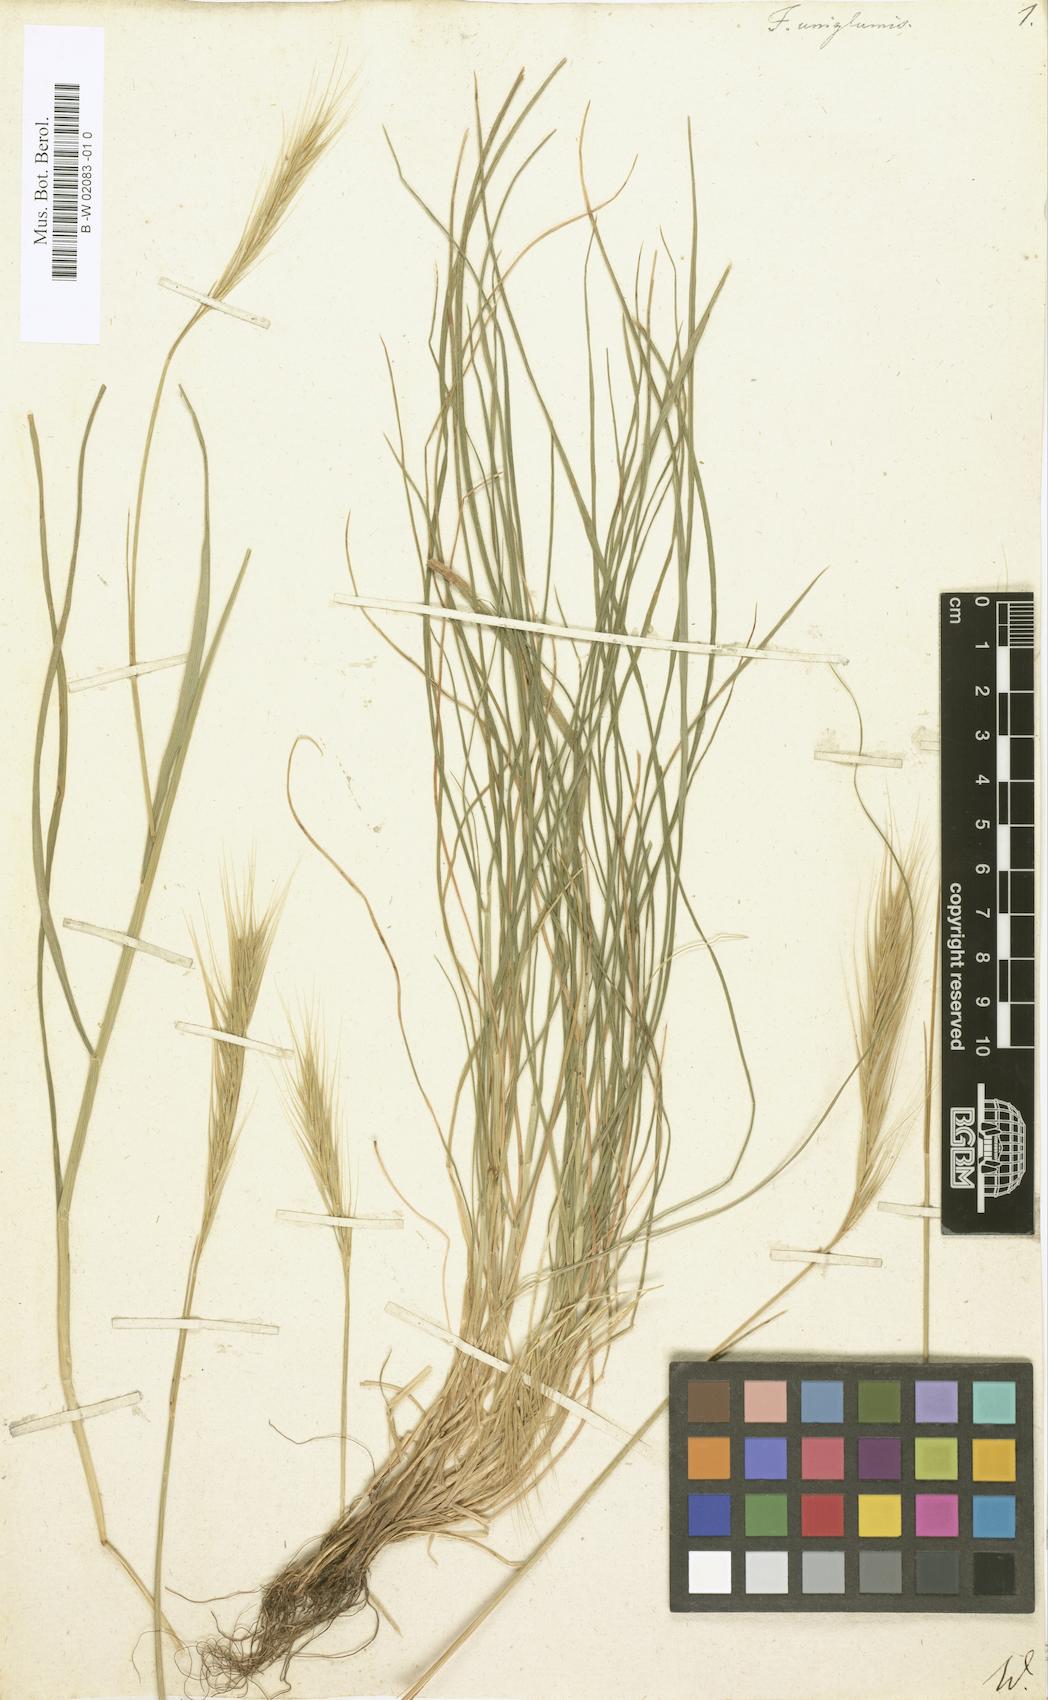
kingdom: Plantae
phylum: Tracheophyta
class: Liliopsida
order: Poales
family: Poaceae
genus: Festuca
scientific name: Festuca
